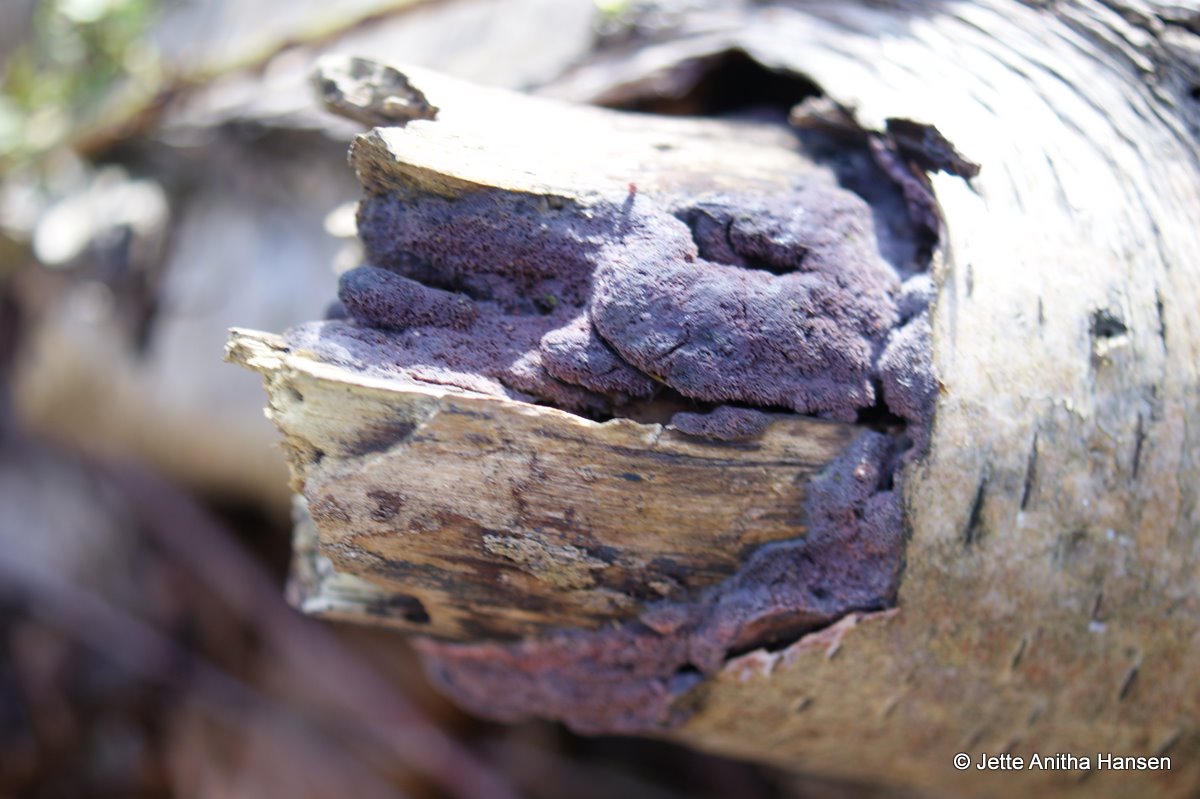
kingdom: Fungi
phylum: Basidiomycota
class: Agaricomycetes
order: Polyporales
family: Irpicaceae
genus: Ceriporia
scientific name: Ceriporia excelsa
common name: lilla voksporesvamp
